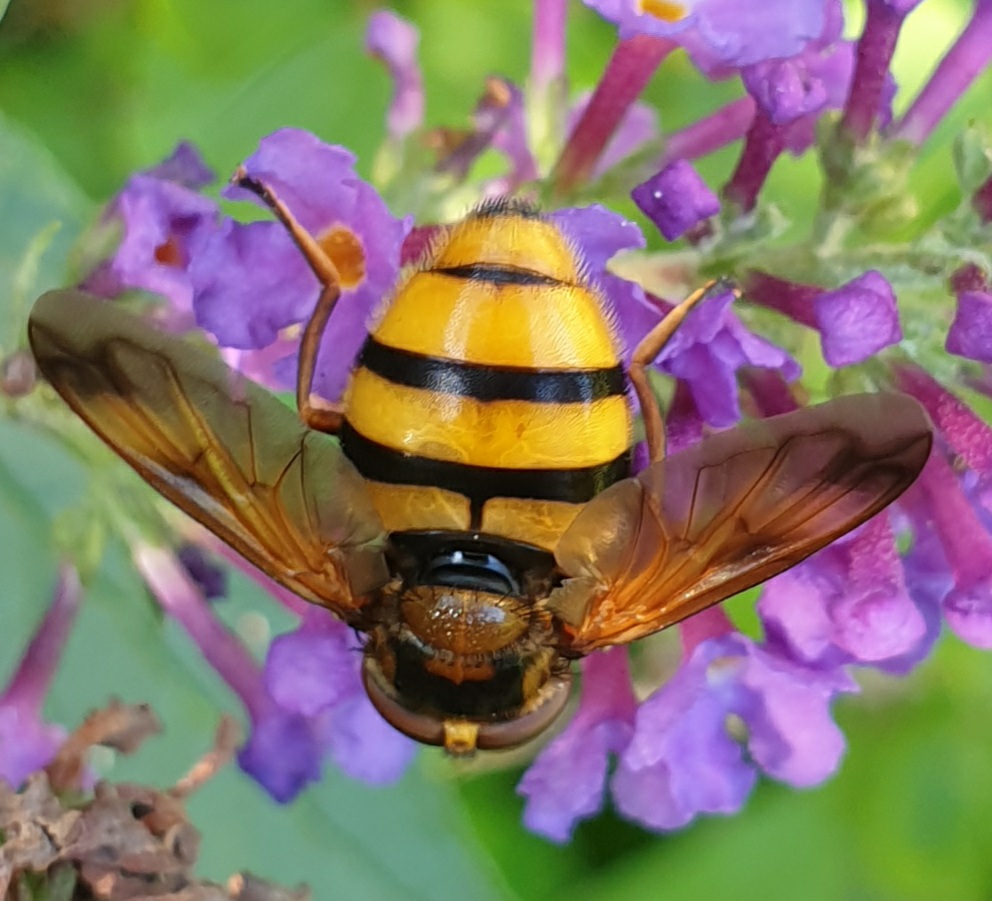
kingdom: Animalia
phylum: Arthropoda
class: Insecta
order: Diptera
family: Syrphidae
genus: Volucella
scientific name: Volucella inanis
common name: Gul humlesvirreflue
